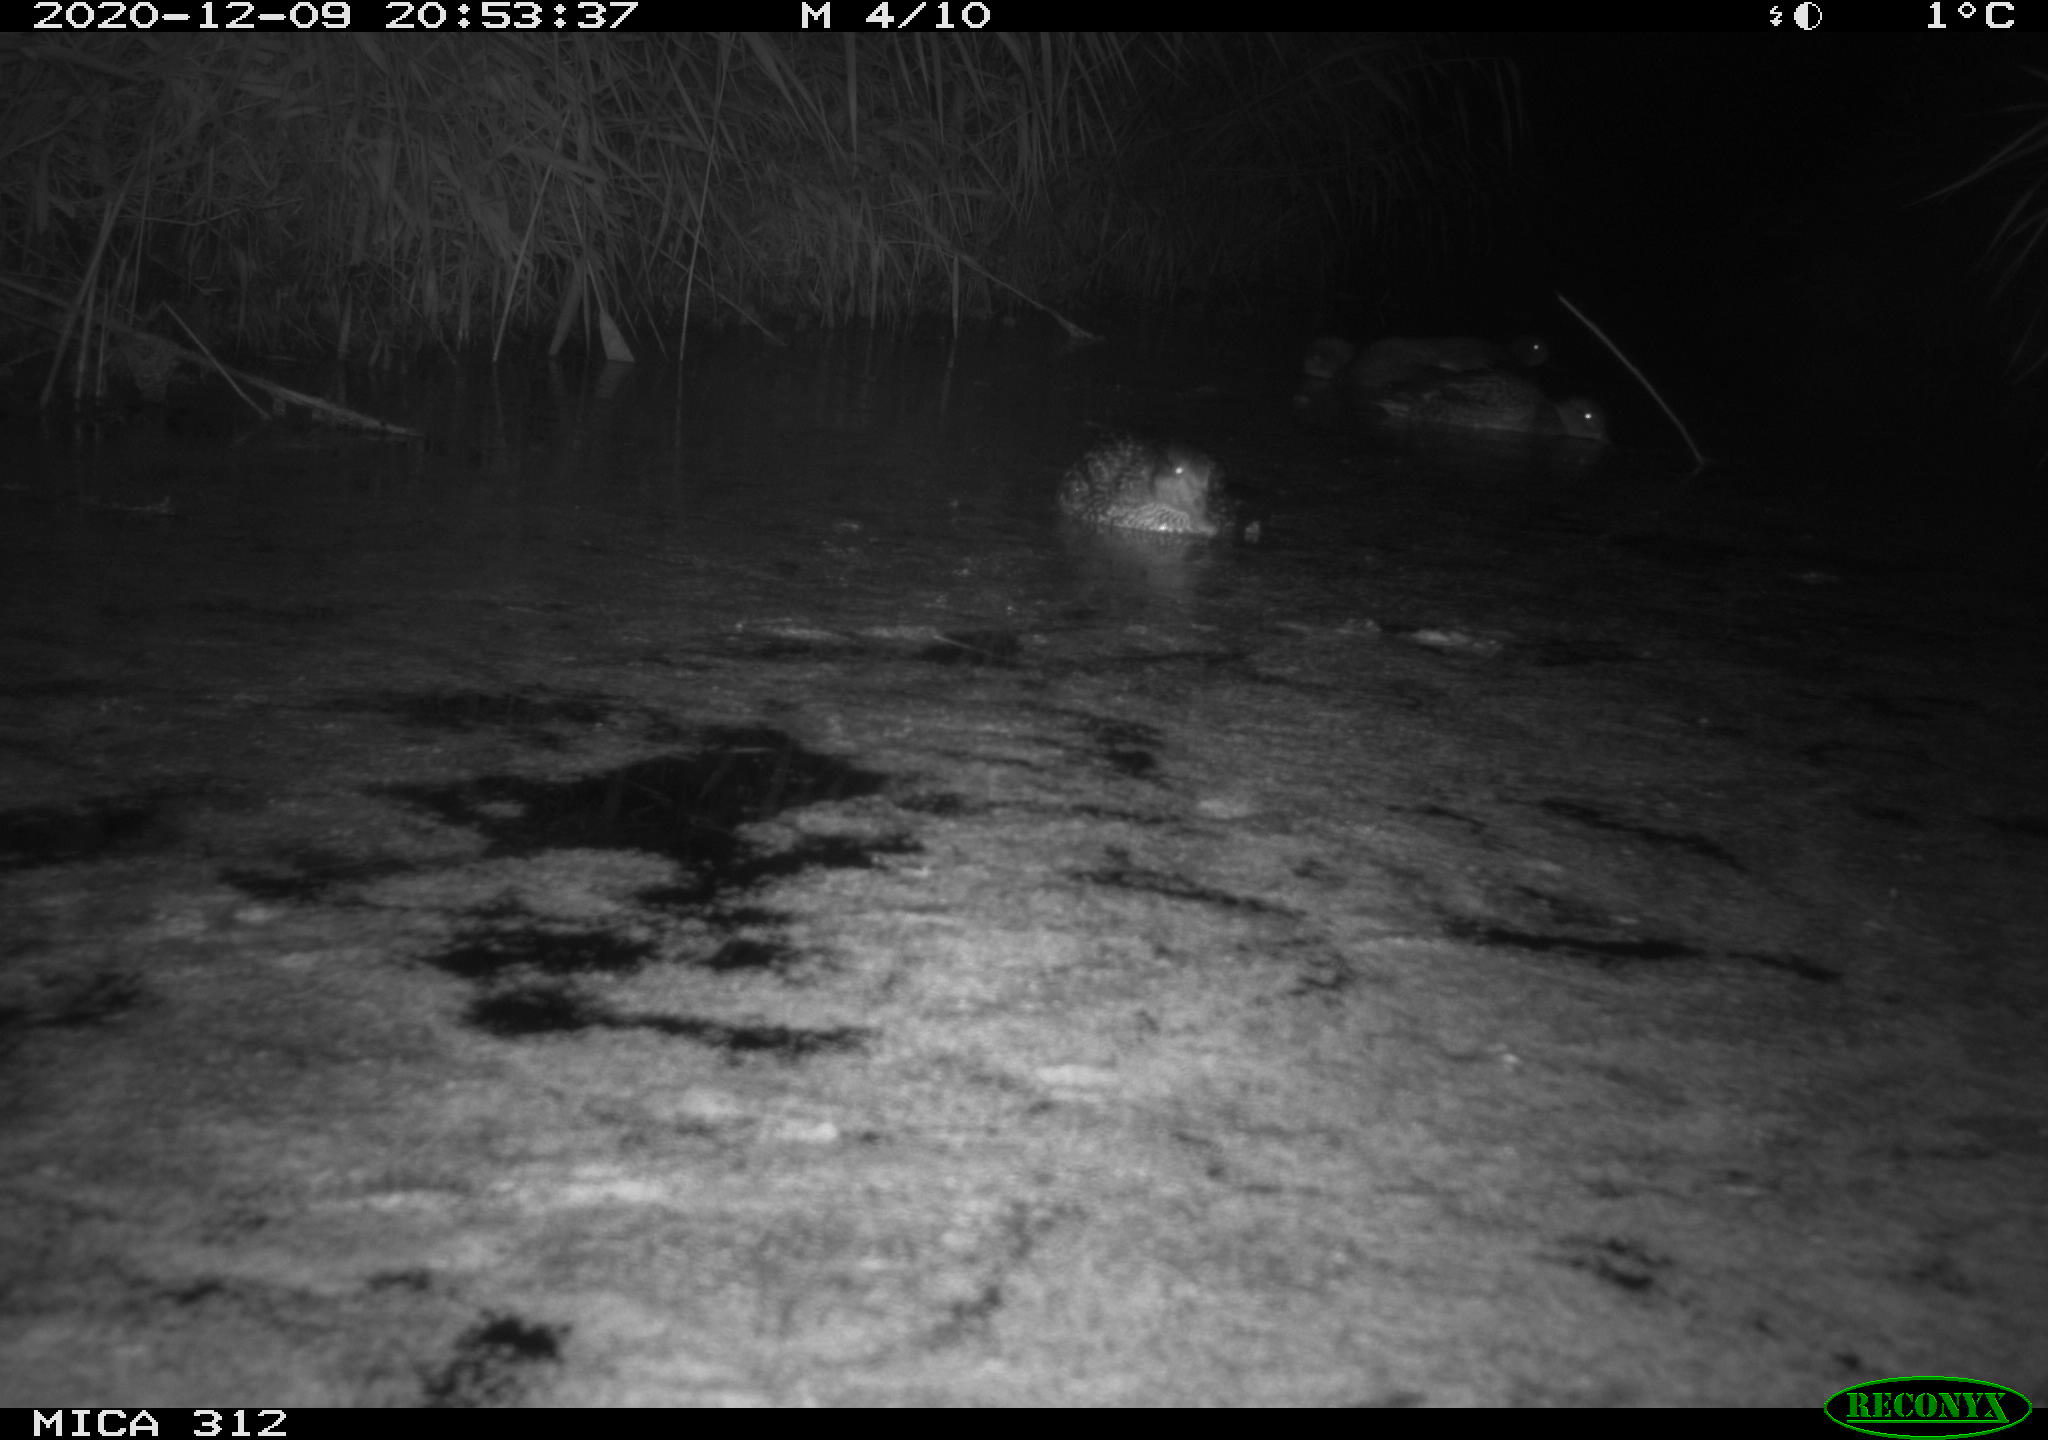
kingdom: Animalia
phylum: Chordata
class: Aves
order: Gruiformes
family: Rallidae
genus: Gallinula
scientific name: Gallinula chloropus
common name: Common moorhen
